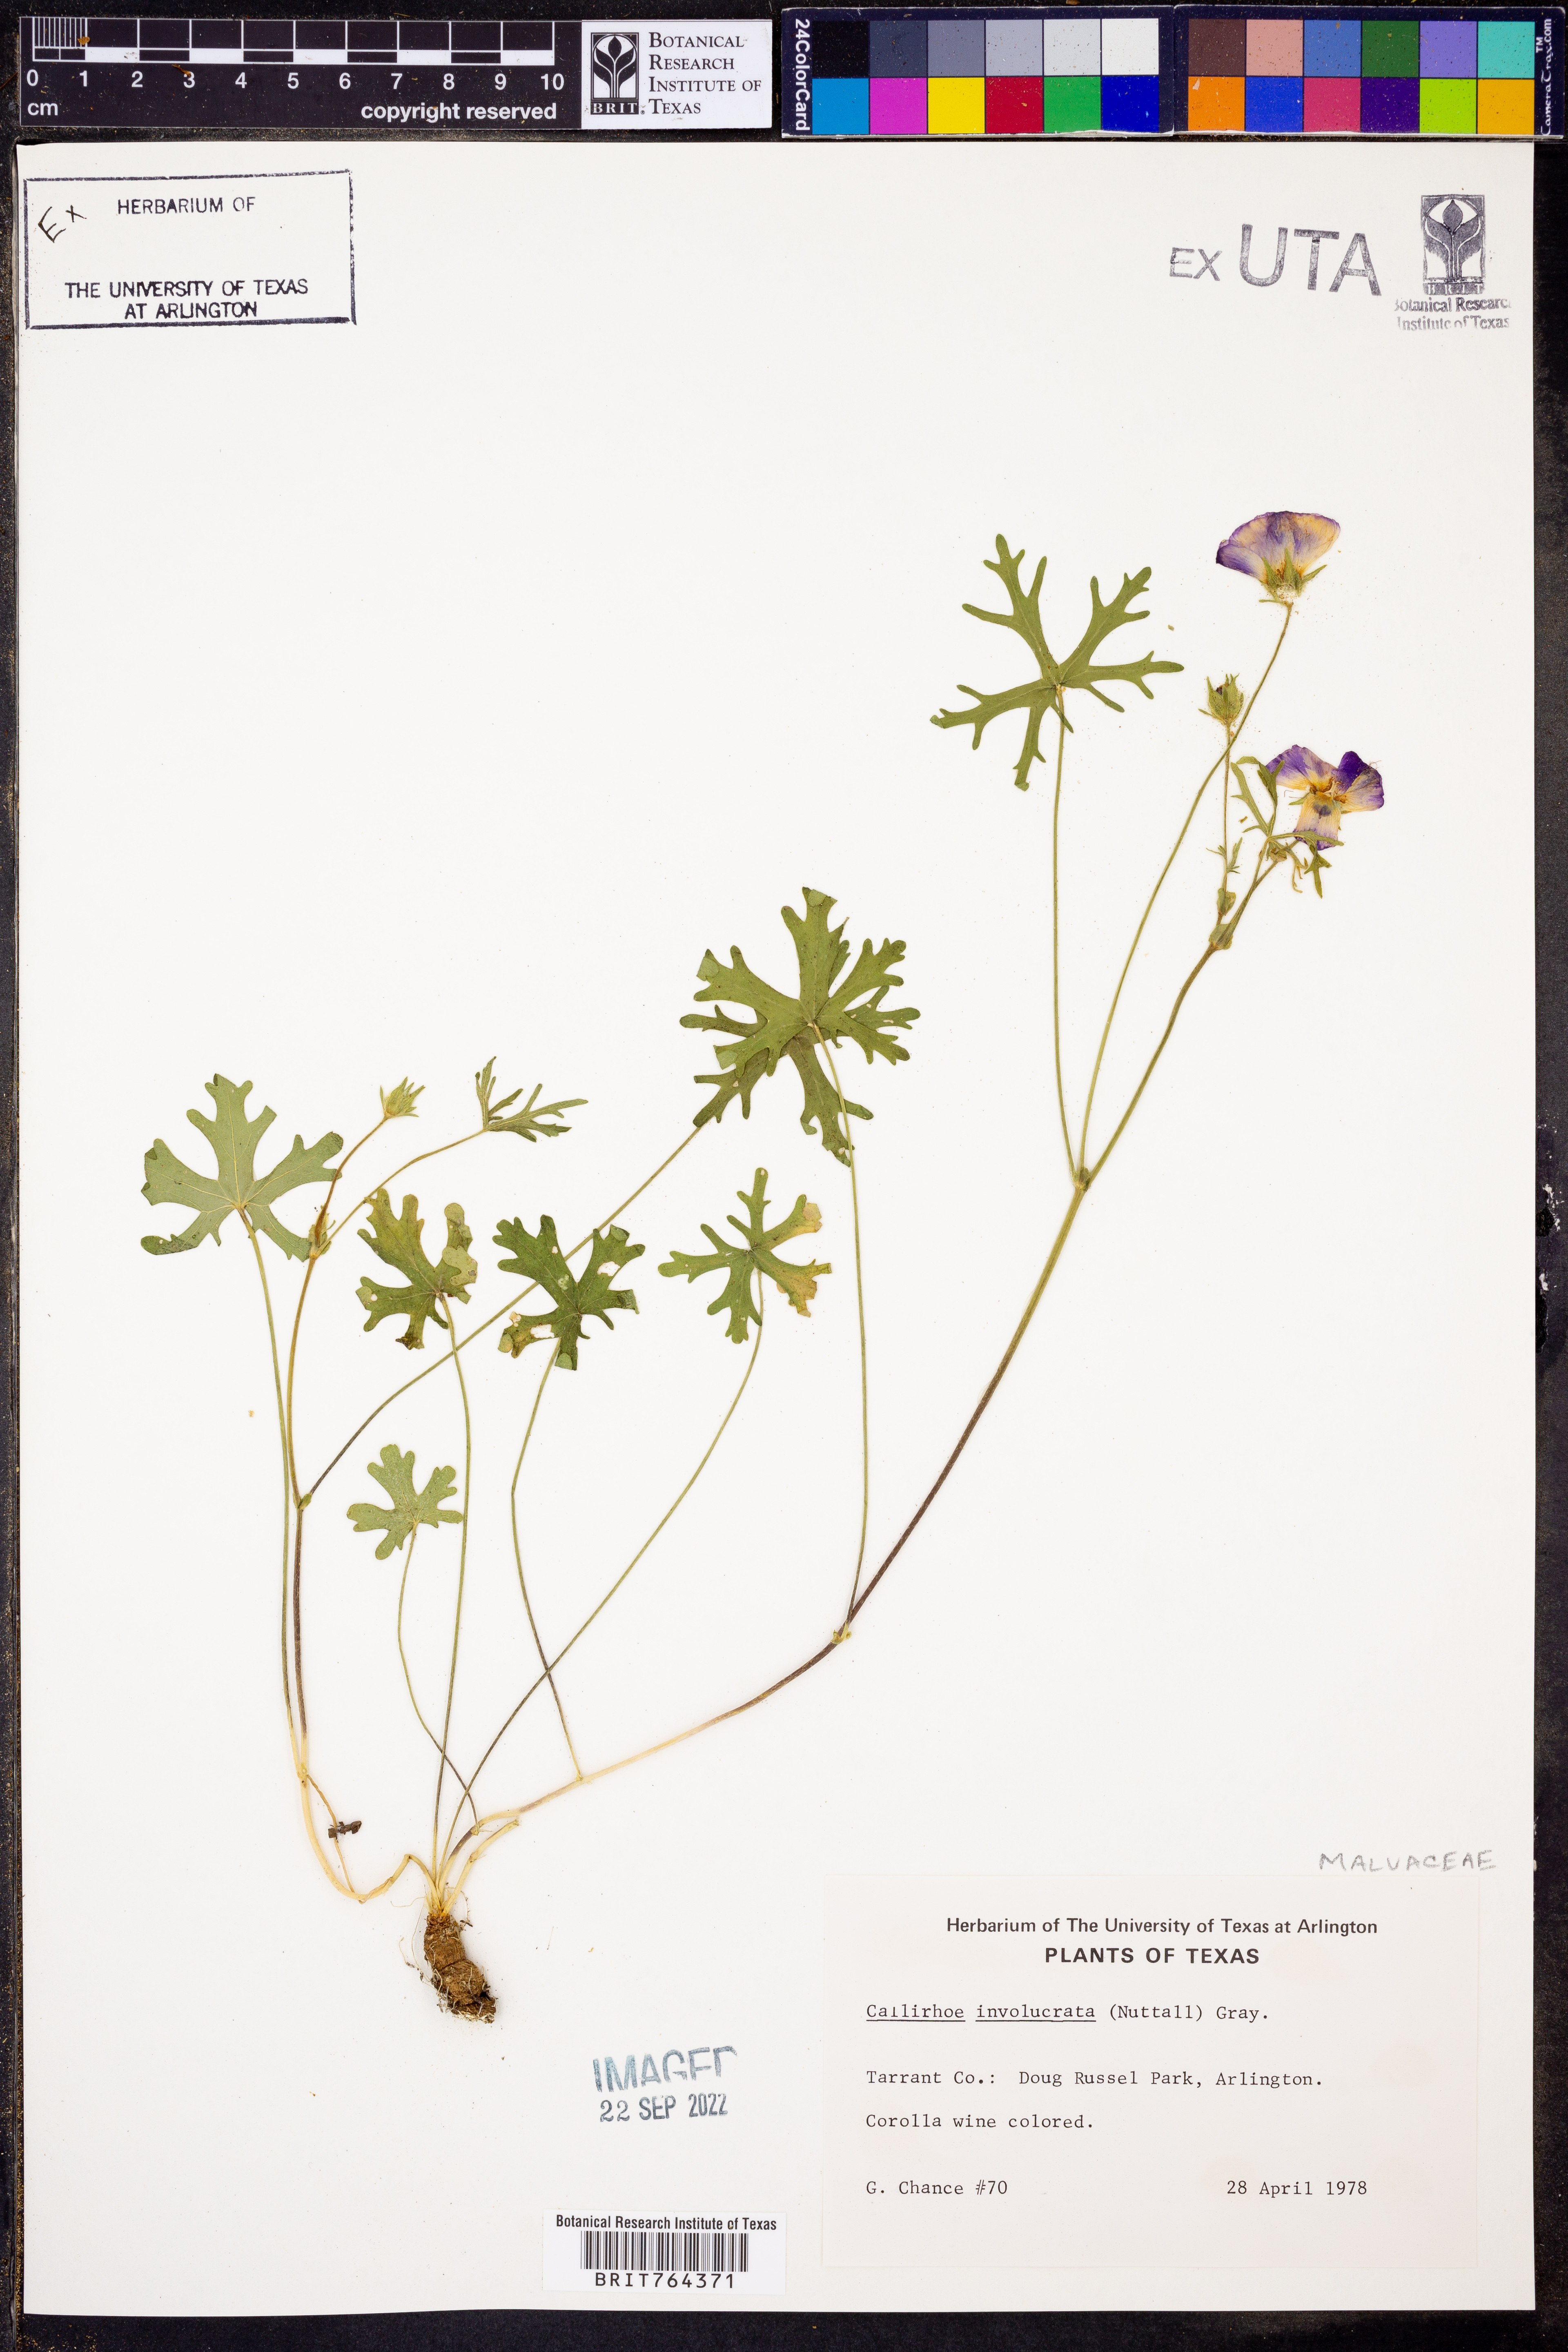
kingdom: Plantae
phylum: Tracheophyta
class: Magnoliopsida
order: Malvales
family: Malvaceae
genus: Callirhoe
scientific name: Callirhoe involucrata
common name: Purple poppy-mallow
